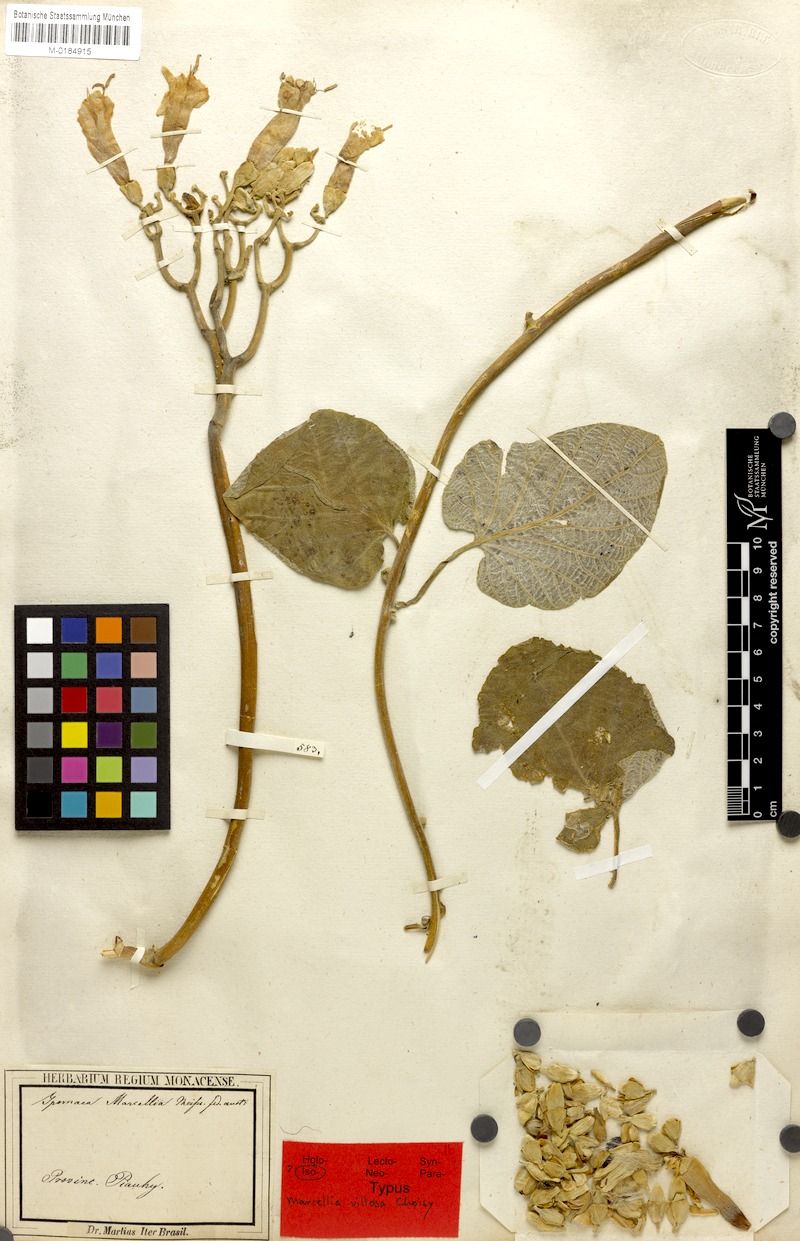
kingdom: Plantae
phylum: Tracheophyta
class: Magnoliopsida
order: Solanales
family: Convolvulaceae
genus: Ipomoea
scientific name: Ipomoea argentea
